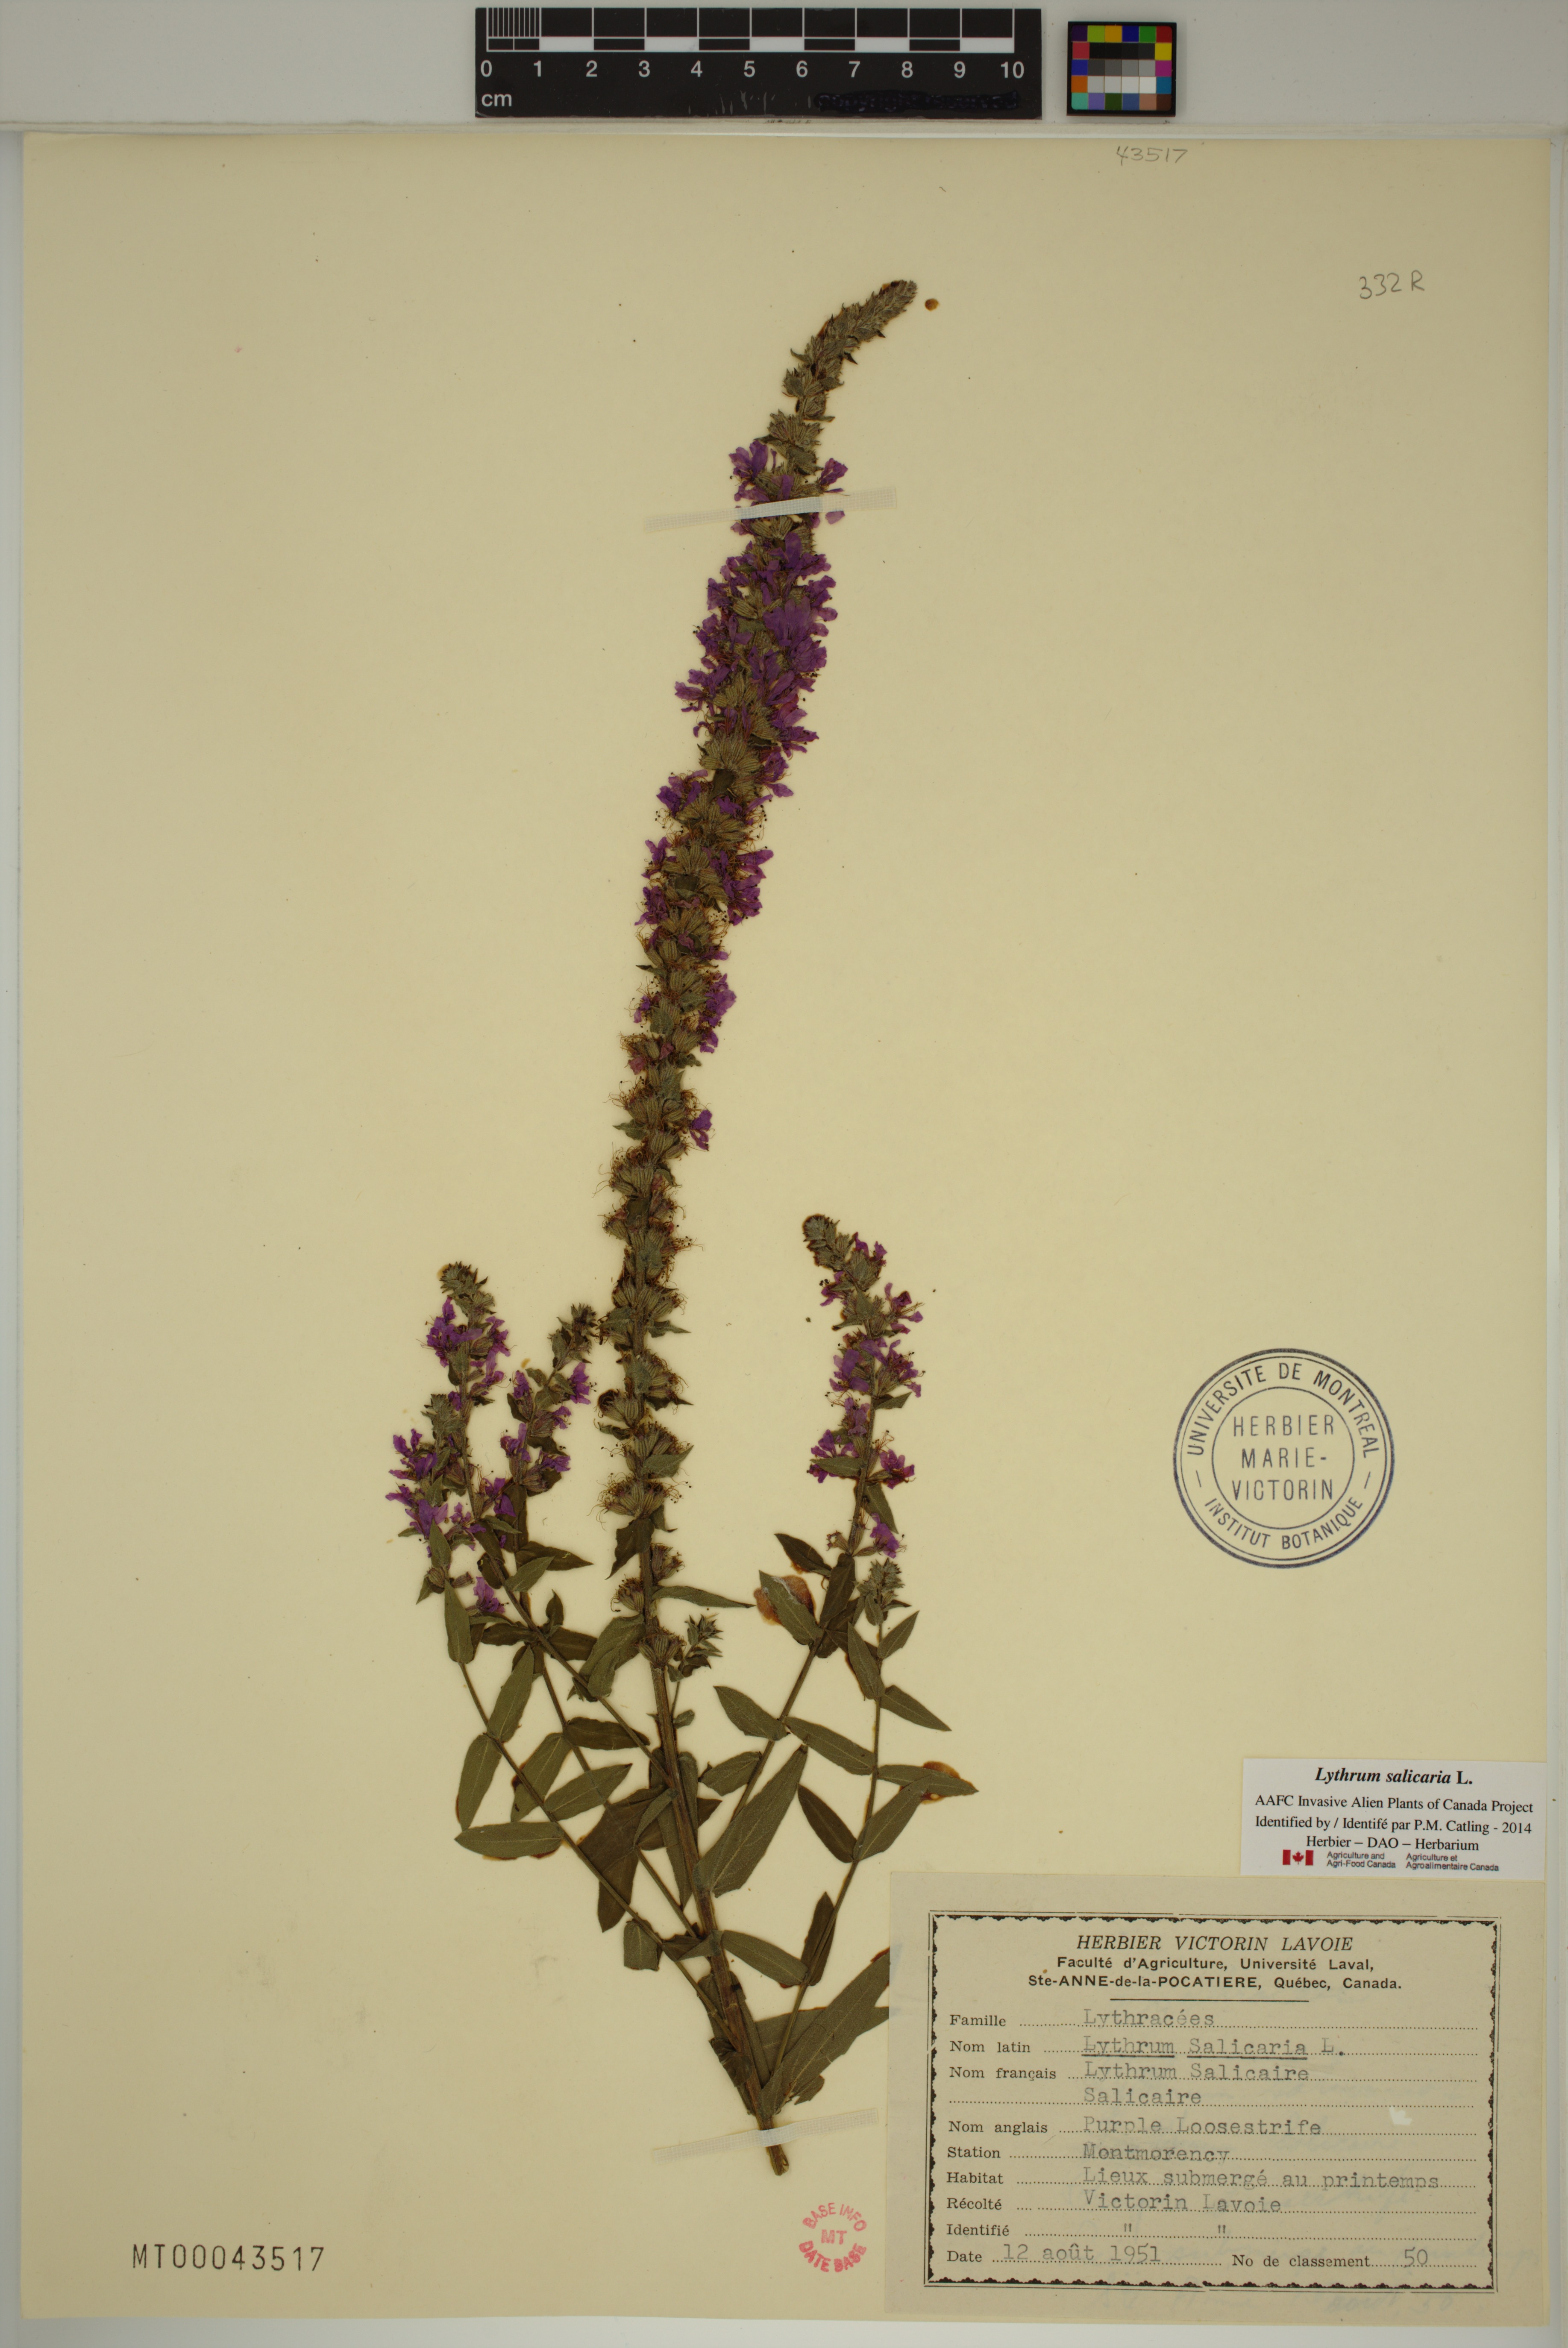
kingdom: Plantae
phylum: Tracheophyta
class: Magnoliopsida
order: Myrtales
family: Lythraceae
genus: Lythrum
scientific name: Lythrum salicaria
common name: Purple loosestrife
